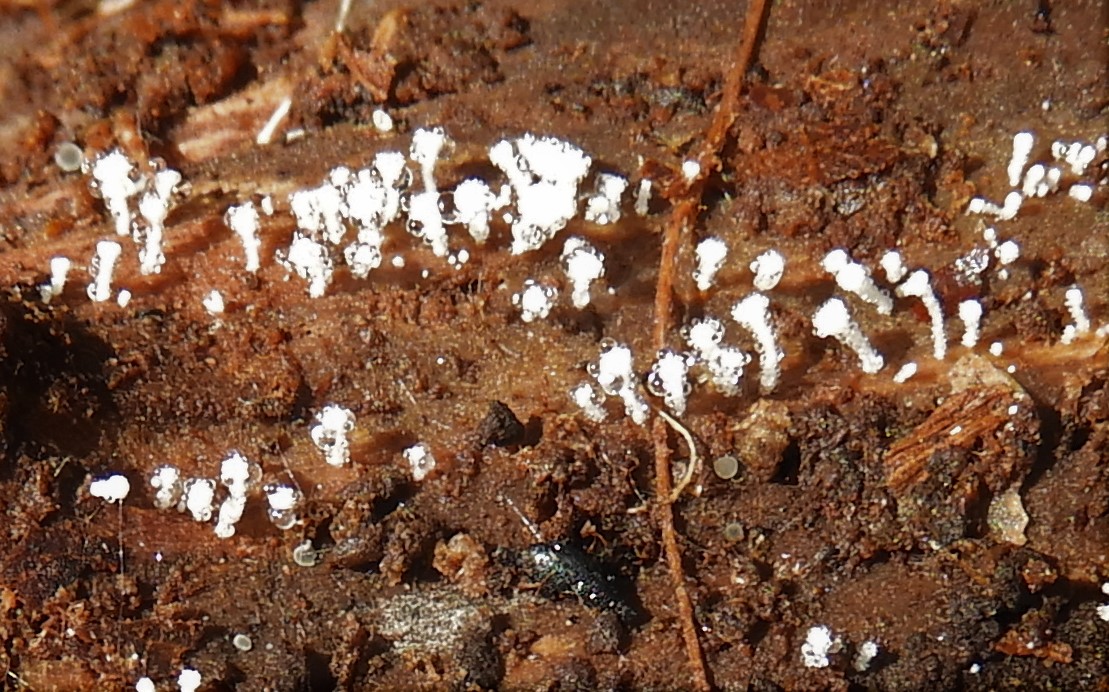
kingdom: Fungi
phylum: Ascomycota
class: Leotiomycetes
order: Helotiales
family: Lachnaceae
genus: Lachnum
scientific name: Lachnum
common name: frynseskive
